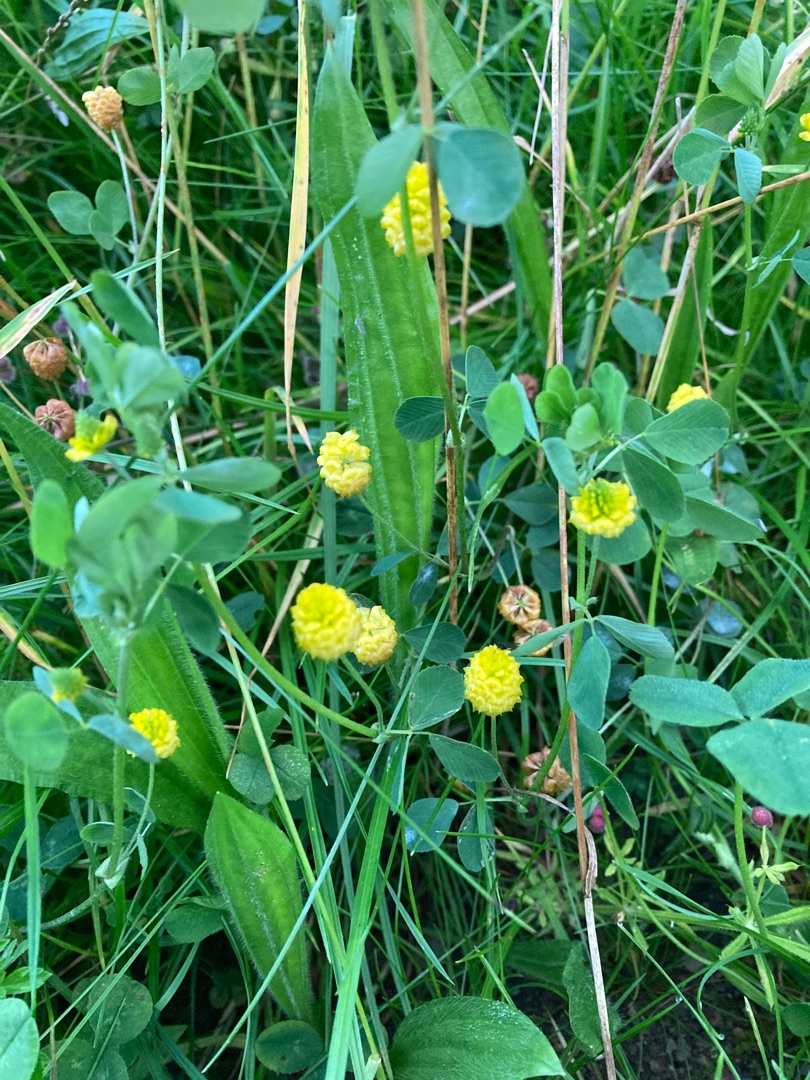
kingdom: Plantae
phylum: Tracheophyta
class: Magnoliopsida
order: Fabales
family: Fabaceae
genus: Trifolium
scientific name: Trifolium campestre
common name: Gul kløver
